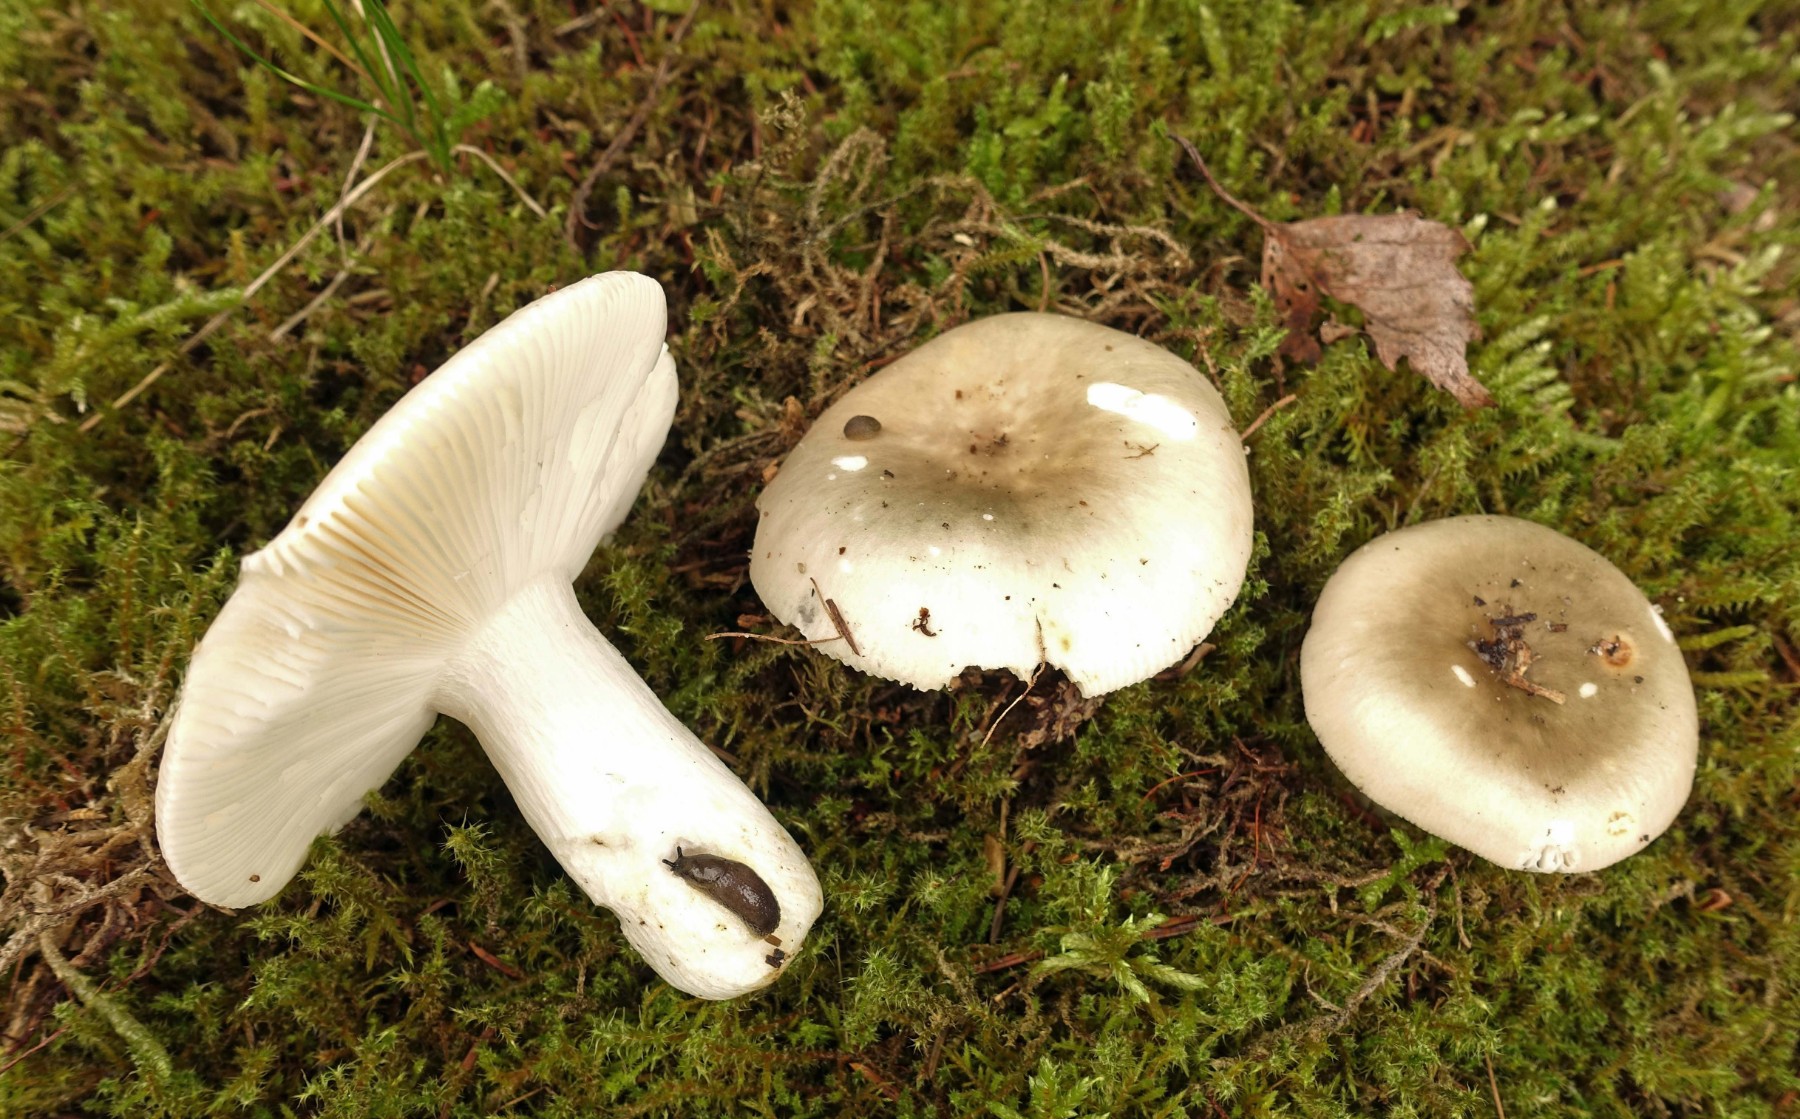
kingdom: Fungi
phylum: Basidiomycota
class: Agaricomycetes
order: Russulales
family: Russulaceae
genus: Russula
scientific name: Russula aeruginea
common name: græsgrøn skørhat
